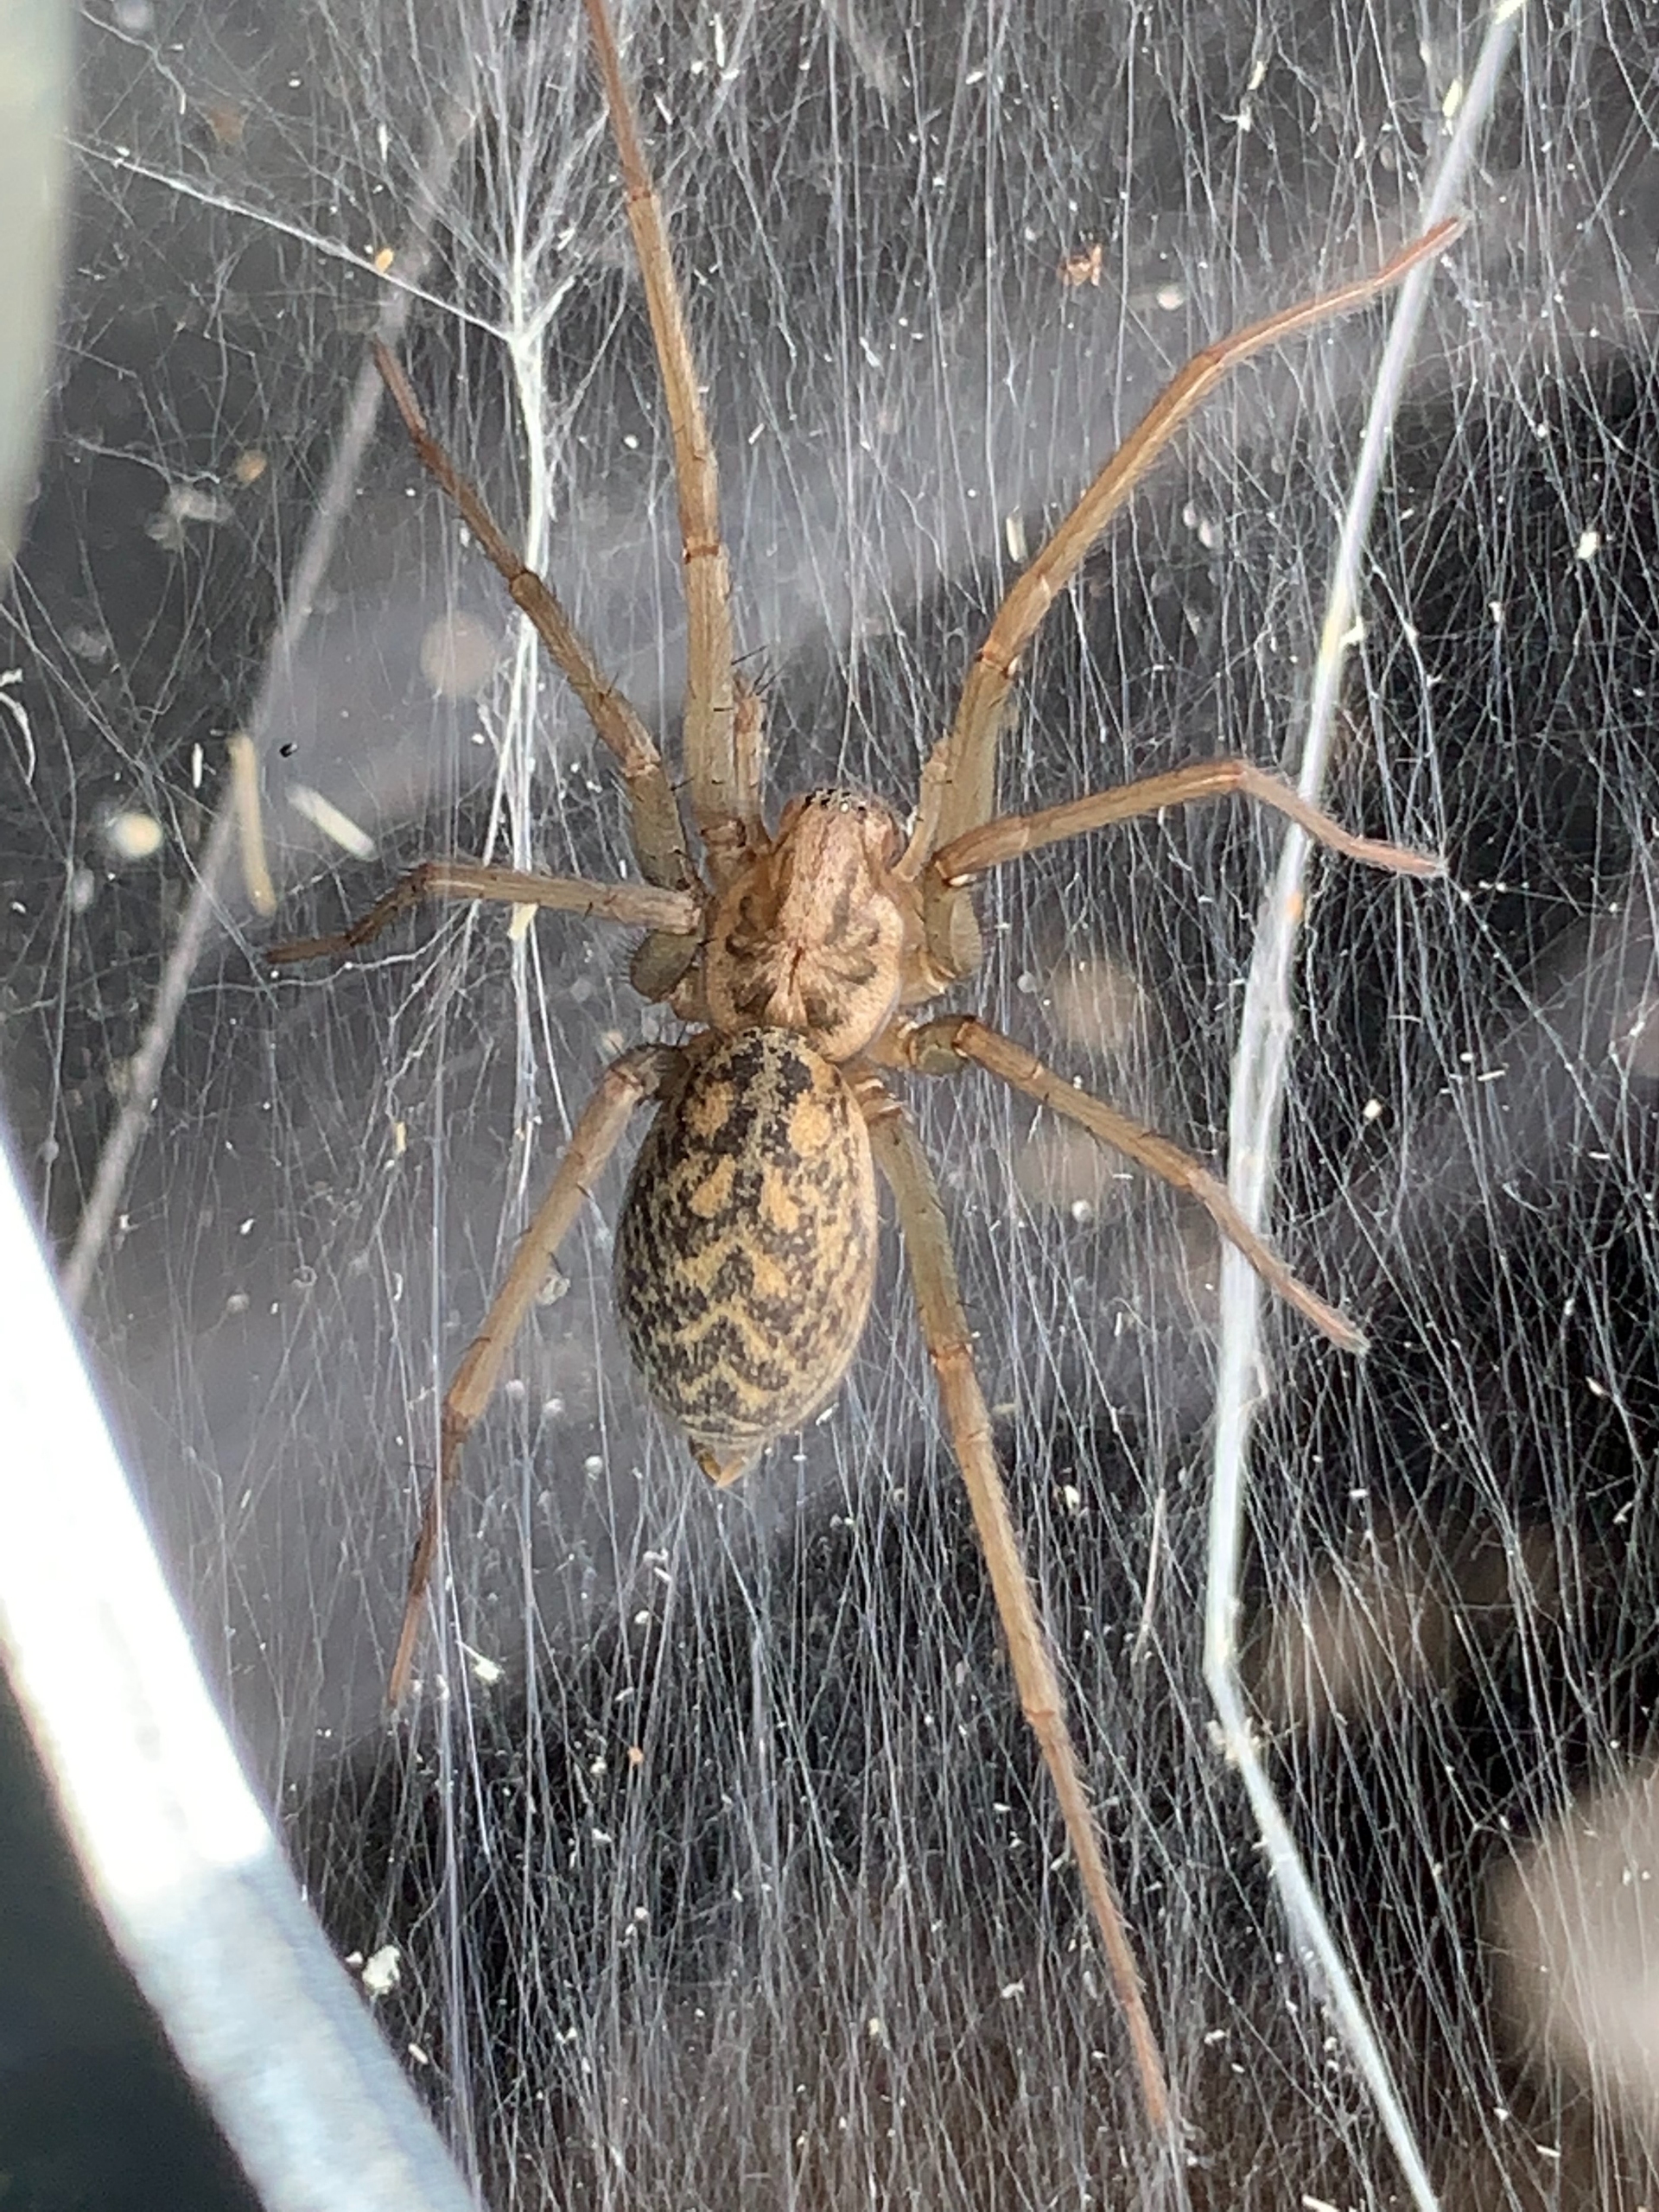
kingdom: Animalia
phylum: Arthropoda
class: Arachnida
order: Araneae
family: Agelenidae
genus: Eratigena
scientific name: Eratigena atrica
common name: Stor husedderkop
